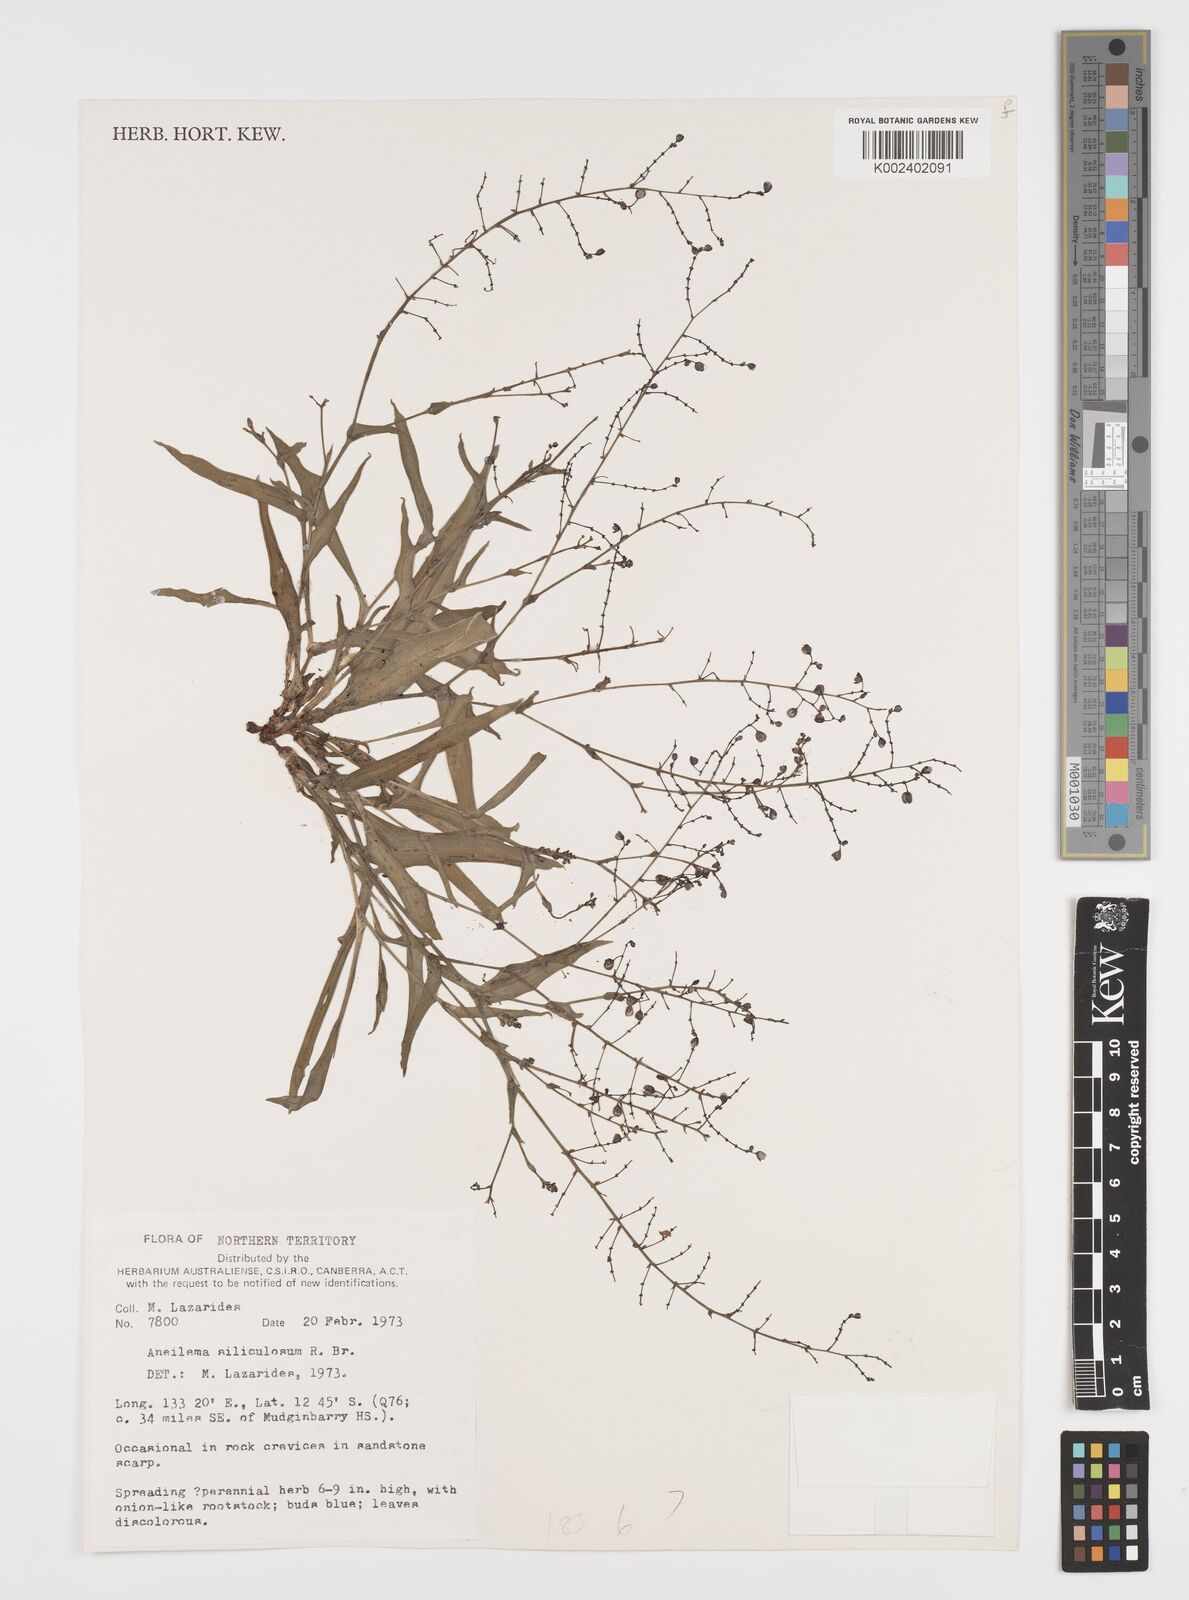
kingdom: Plantae
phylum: Tracheophyta
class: Liliopsida
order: Commelinales
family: Commelinaceae
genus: Aneilema
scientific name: Aneilema siliculosum
